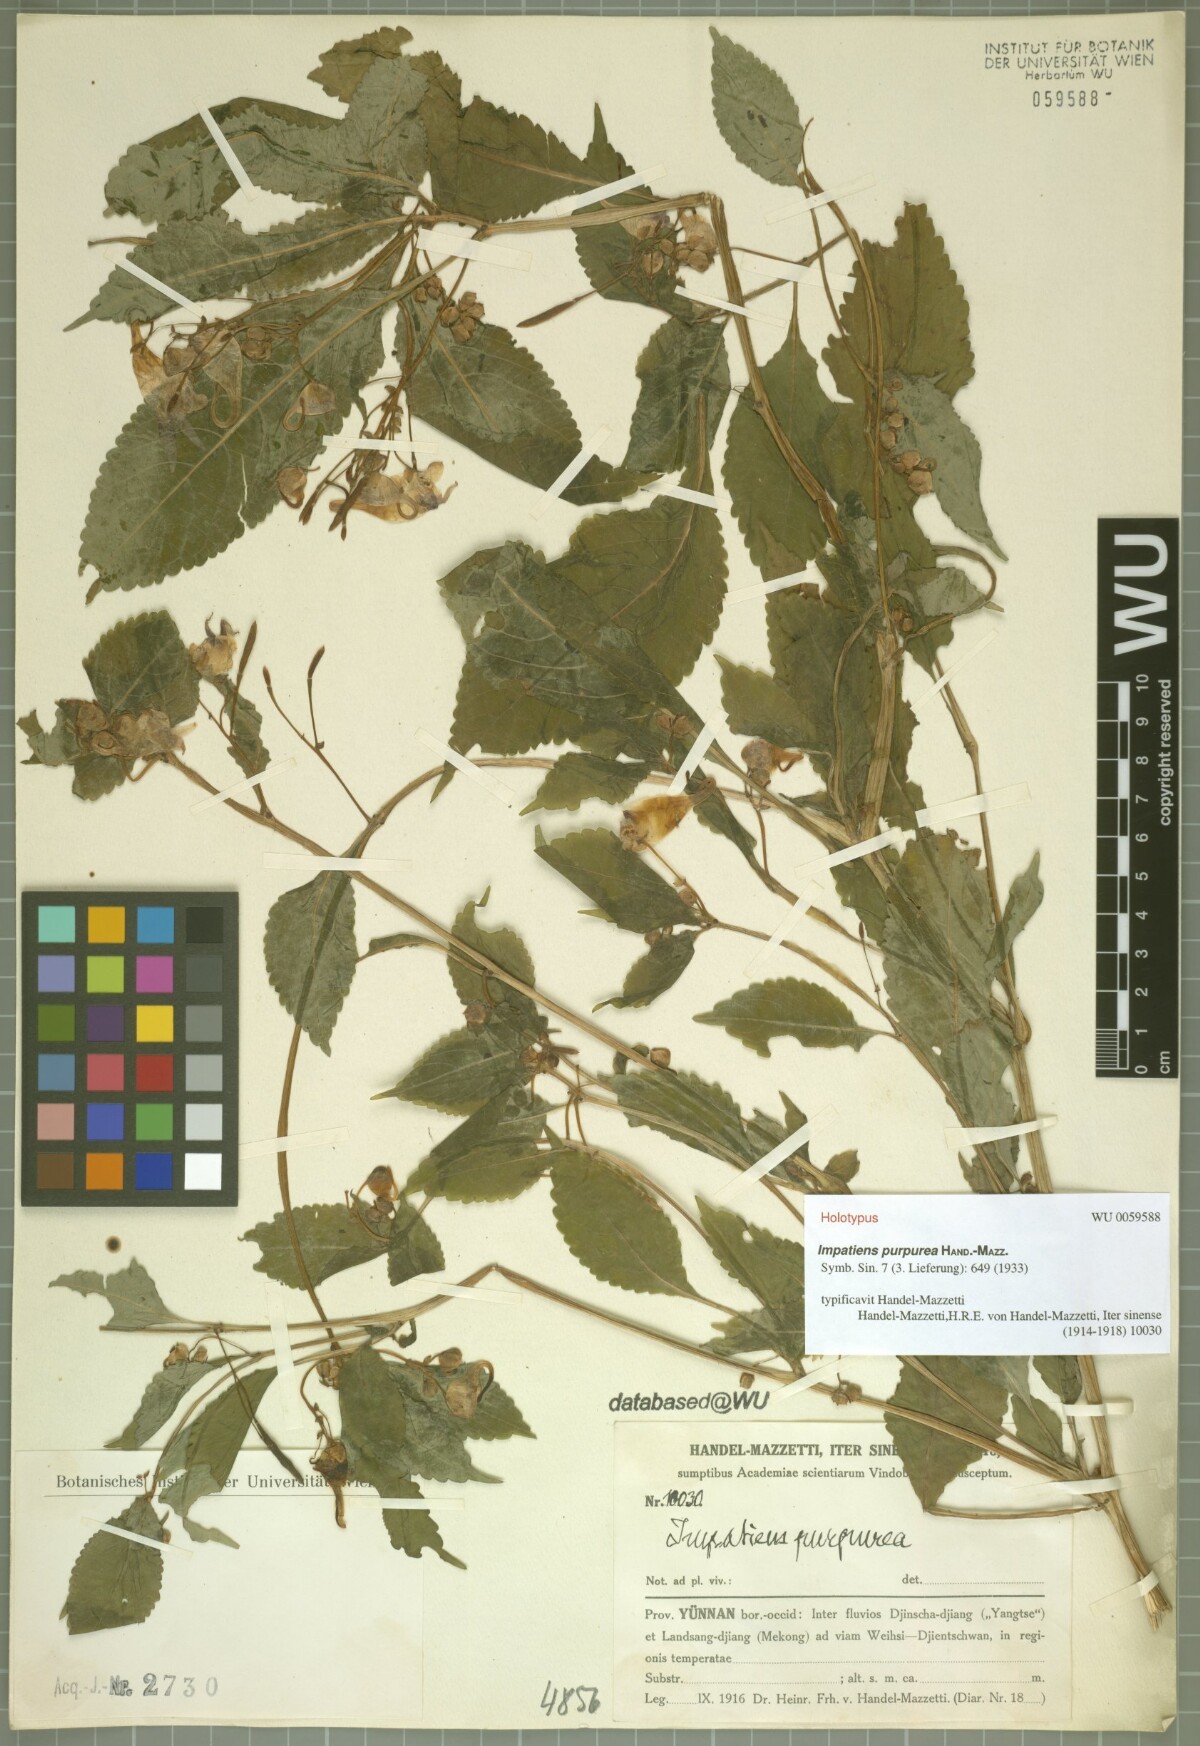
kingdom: Plantae
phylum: Tracheophyta
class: Magnoliopsida
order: Ericales
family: Balsaminaceae
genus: Impatiens
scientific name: Impatiens purpurea
